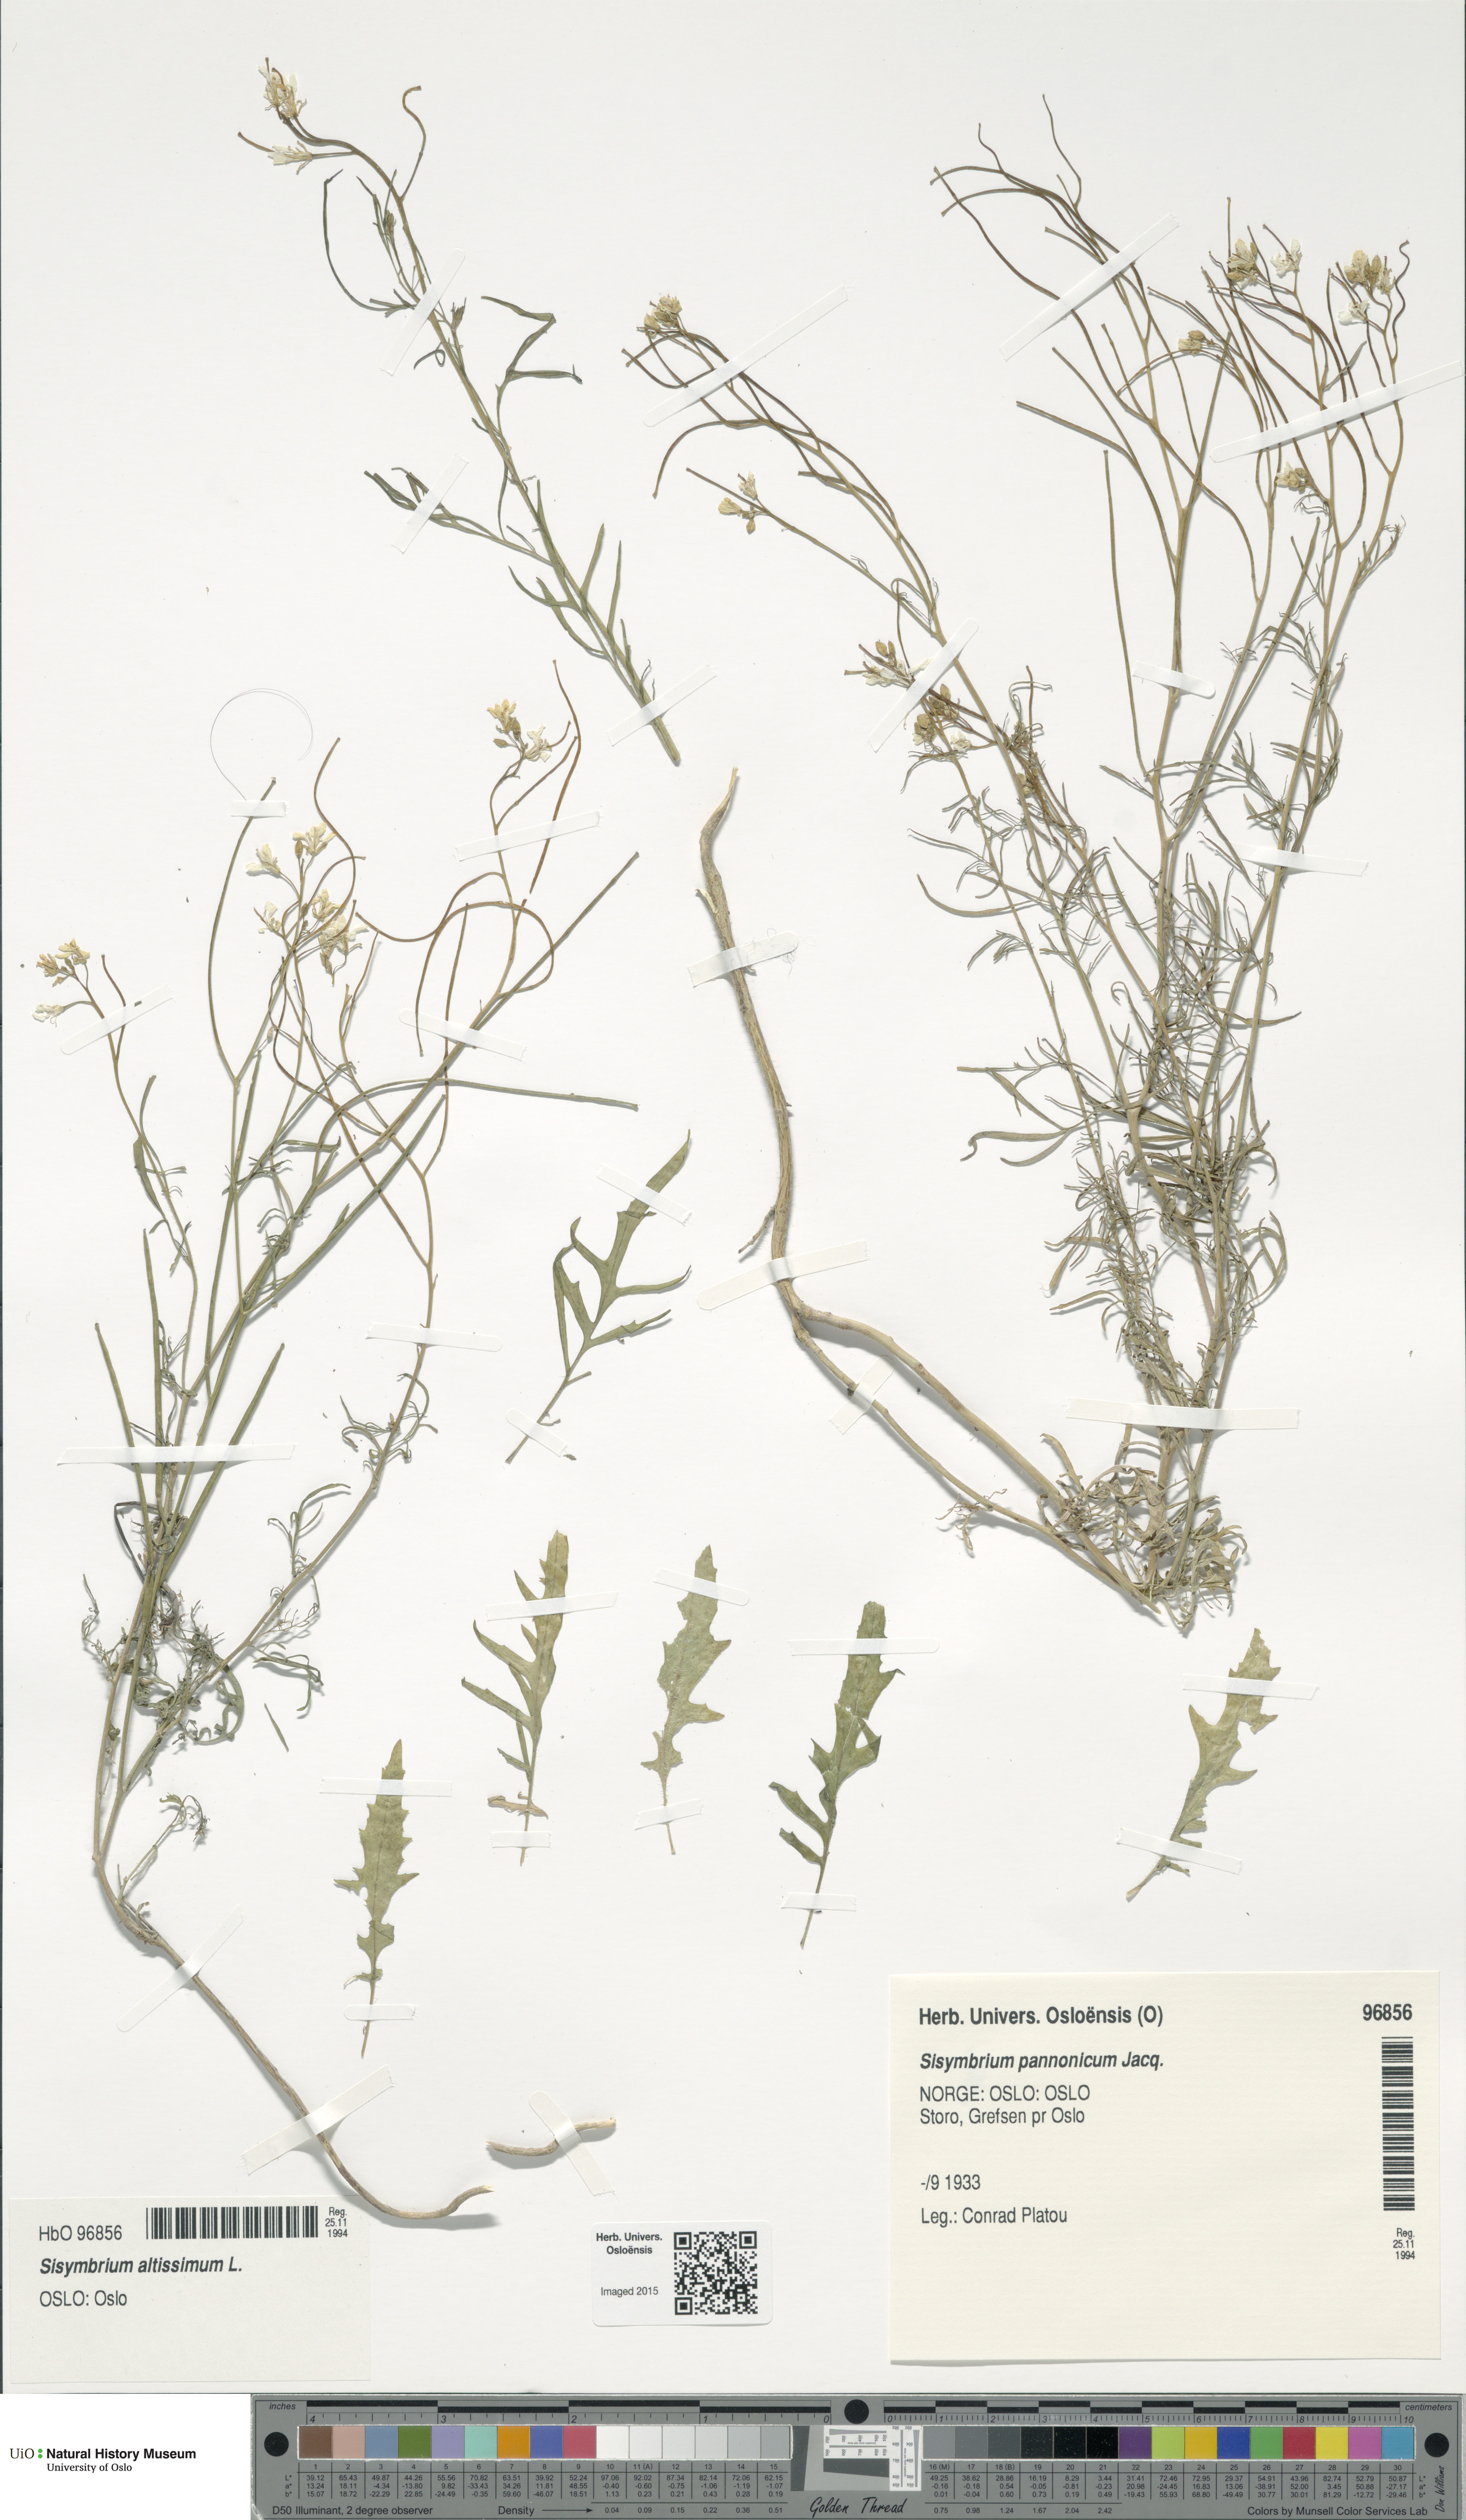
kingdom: Plantae
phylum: Tracheophyta
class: Magnoliopsida
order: Brassicales
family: Brassicaceae
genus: Sisymbrium
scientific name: Sisymbrium altissimum
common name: Tall rocket
